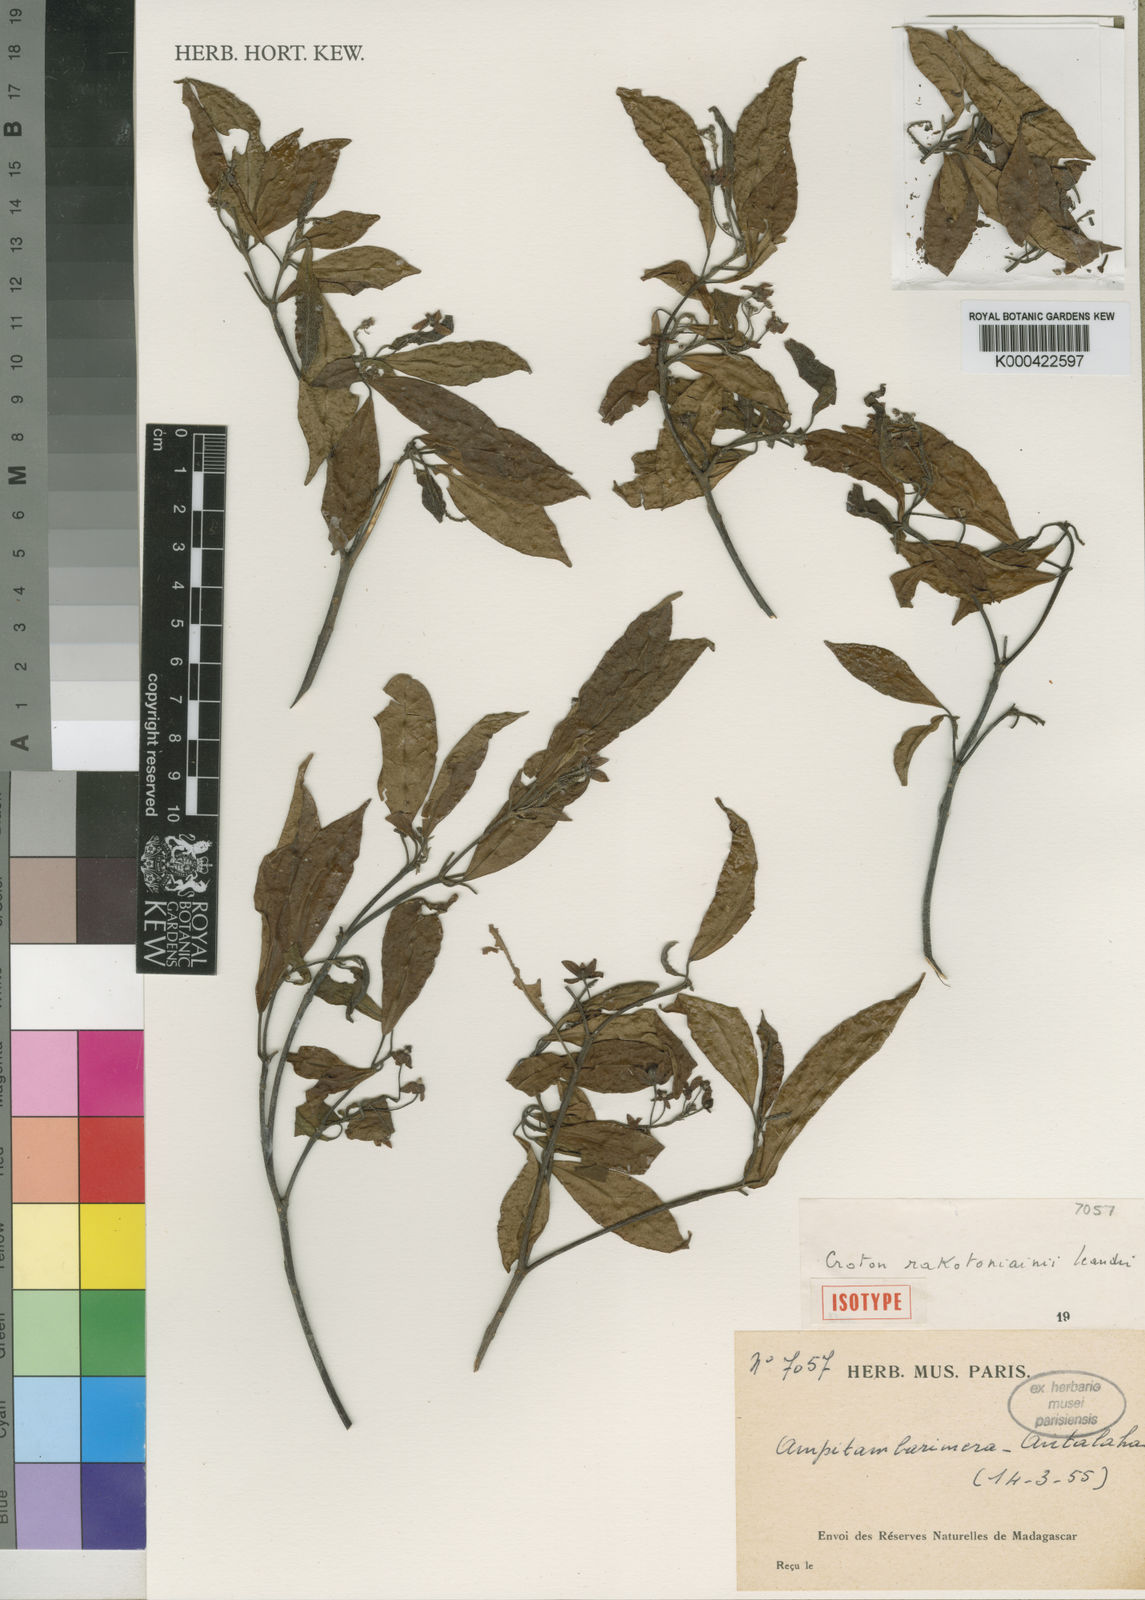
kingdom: Plantae
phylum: Tracheophyta
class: Magnoliopsida
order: Malpighiales
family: Euphorbiaceae
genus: Croton
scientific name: Croton rakotoniainii
